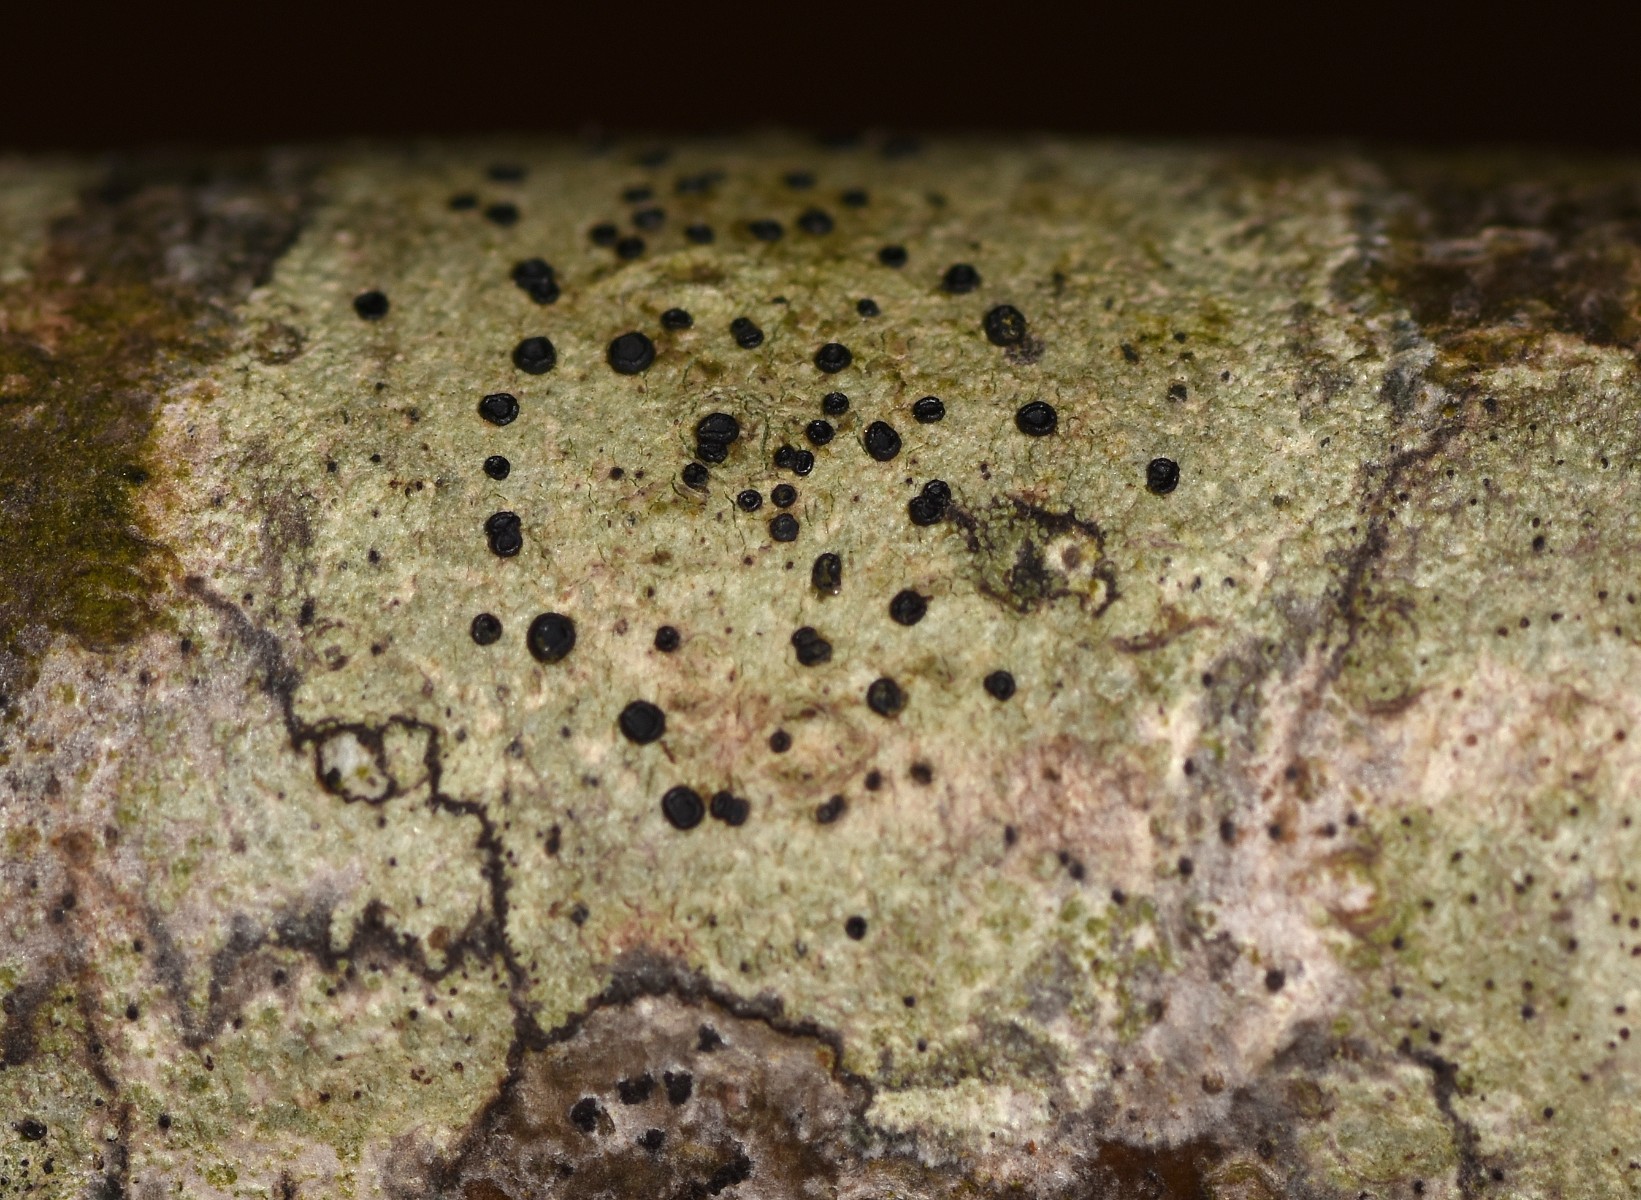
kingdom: Fungi
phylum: Ascomycota
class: Lecanoromycetes
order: Lecanorales
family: Lecanoraceae
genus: Lecidella
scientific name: Lecidella elaeochroma
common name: grågrøn skivelav
